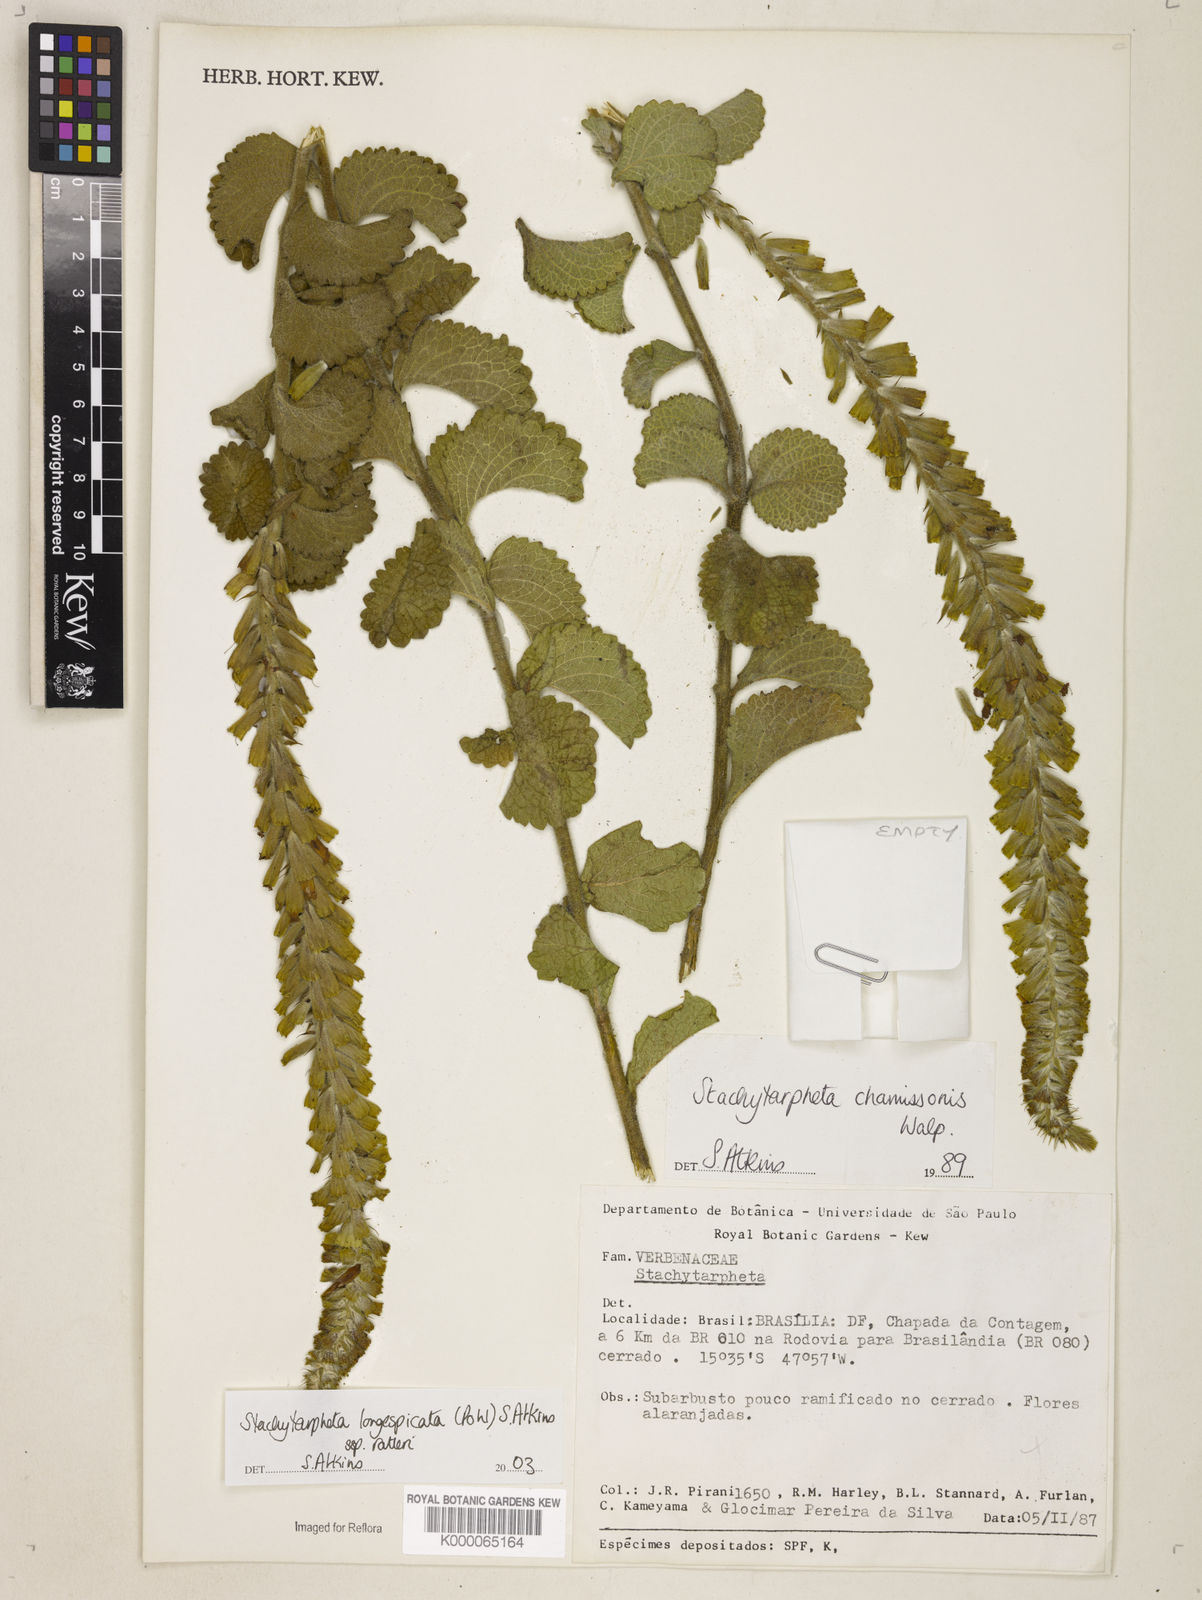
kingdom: Plantae
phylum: Tracheophyta
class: Magnoliopsida
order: Lamiales
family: Verbenaceae
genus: Stachytarpheta
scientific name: Stachytarpheta longispicata
